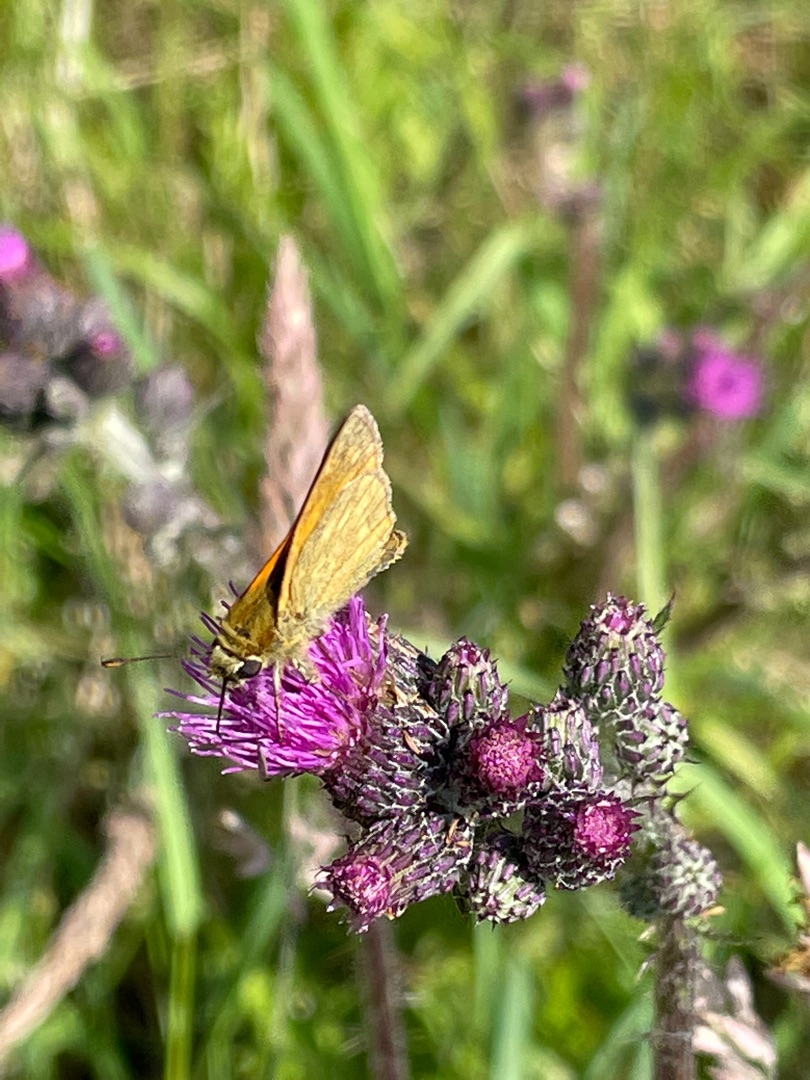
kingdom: Animalia
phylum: Arthropoda
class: Insecta
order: Lepidoptera
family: Hesperiidae
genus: Ochlodes
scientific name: Ochlodes venata
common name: Stor bredpande
